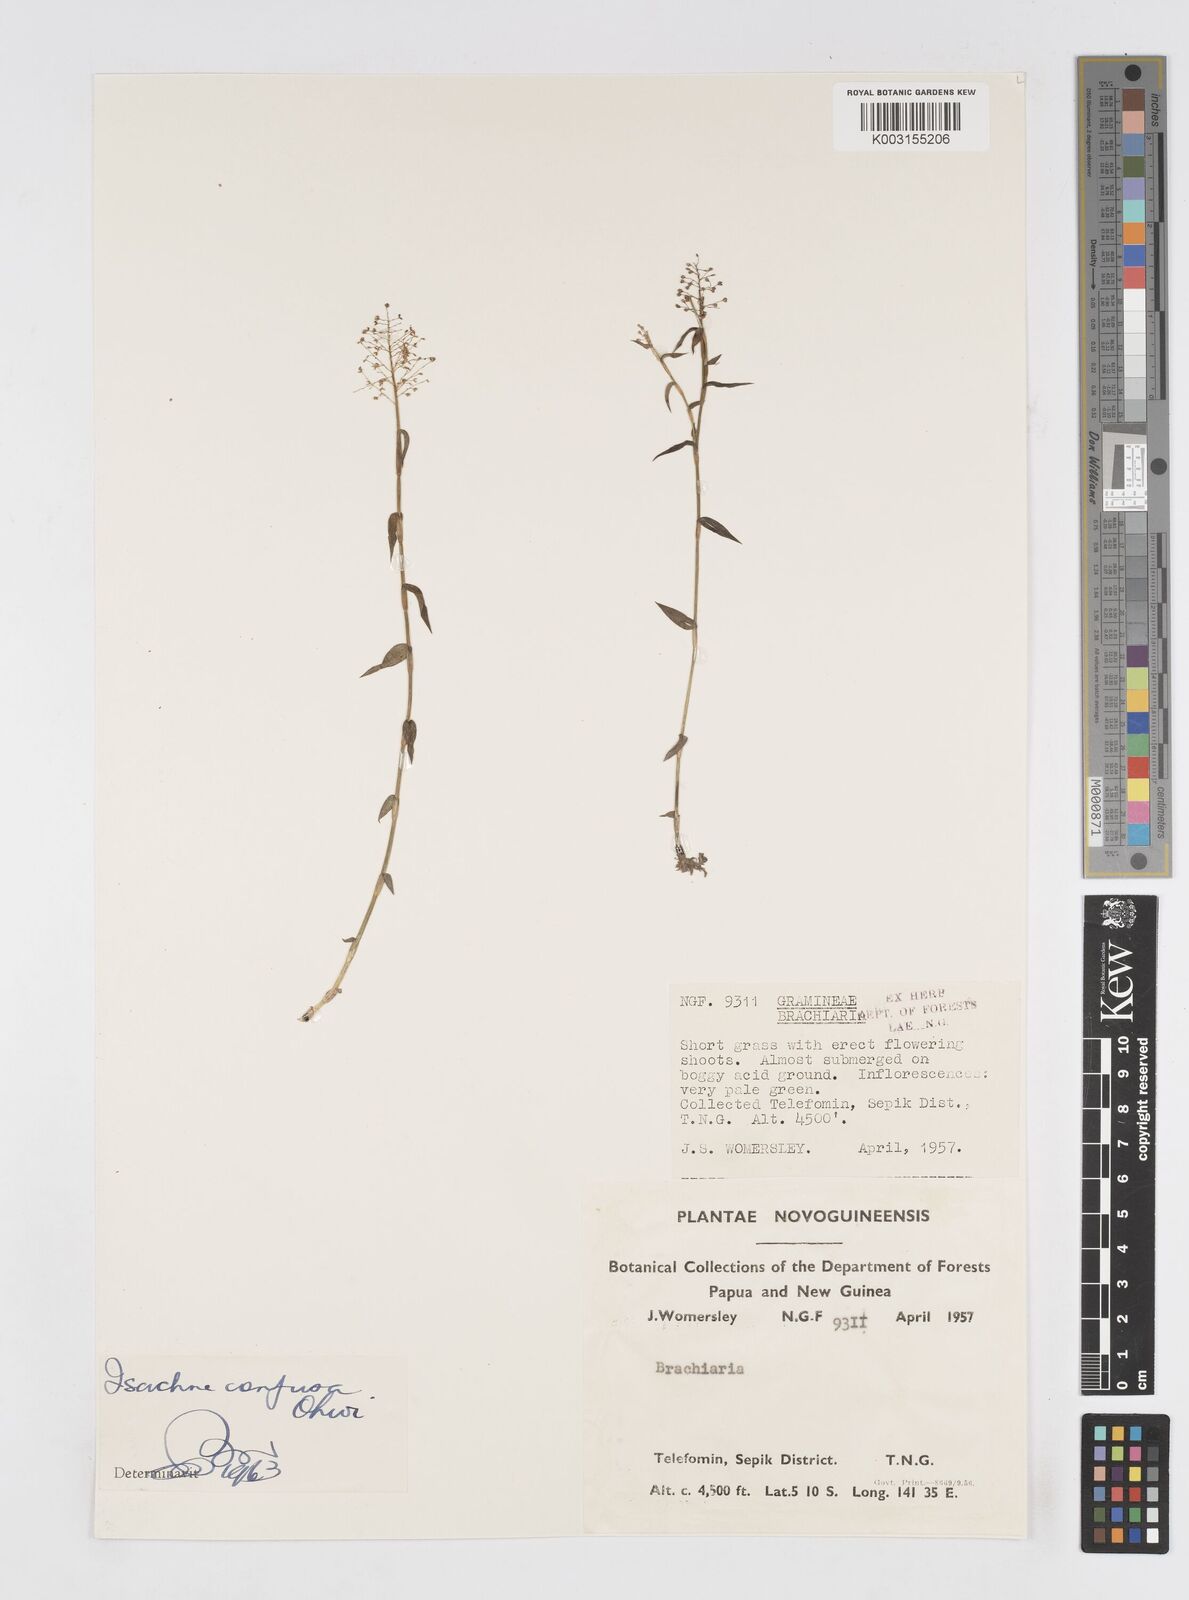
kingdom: Plantae
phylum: Tracheophyta
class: Liliopsida
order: Poales
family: Poaceae
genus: Isachne
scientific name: Isachne confusa
